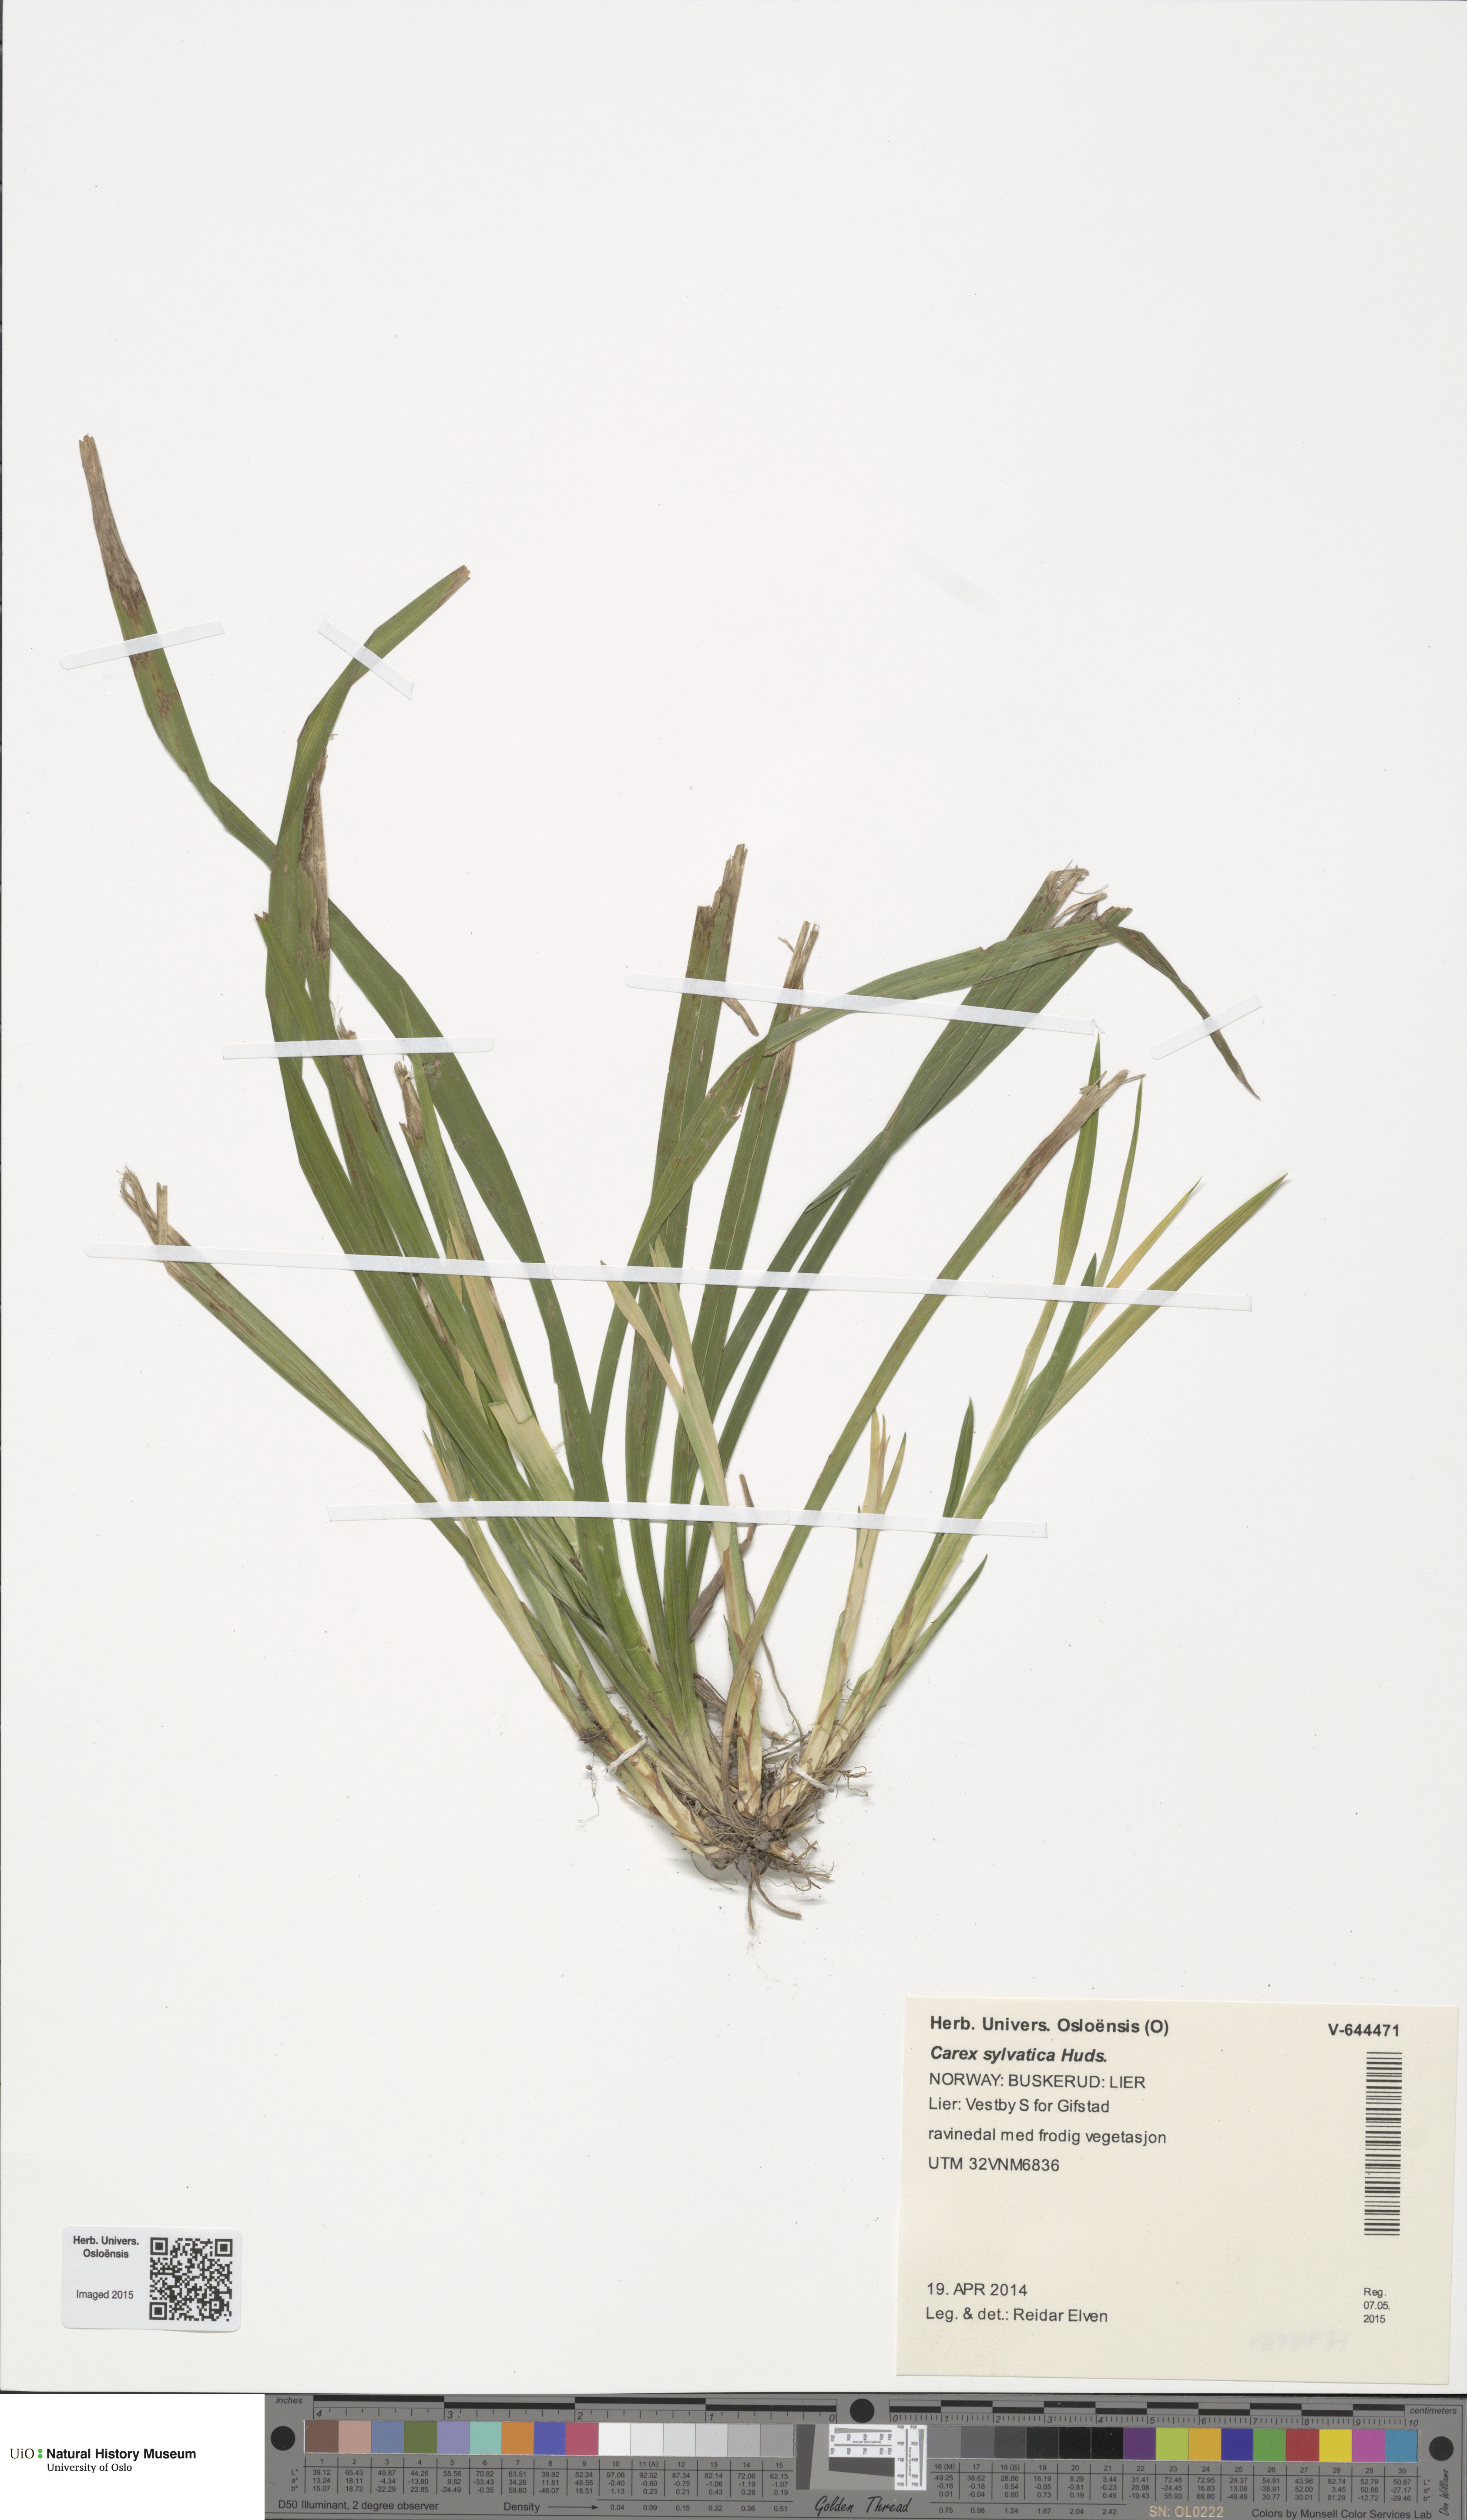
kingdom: Plantae
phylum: Tracheophyta
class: Liliopsida
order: Poales
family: Cyperaceae
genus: Carex
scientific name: Carex sylvatica
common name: Wood-sedge
